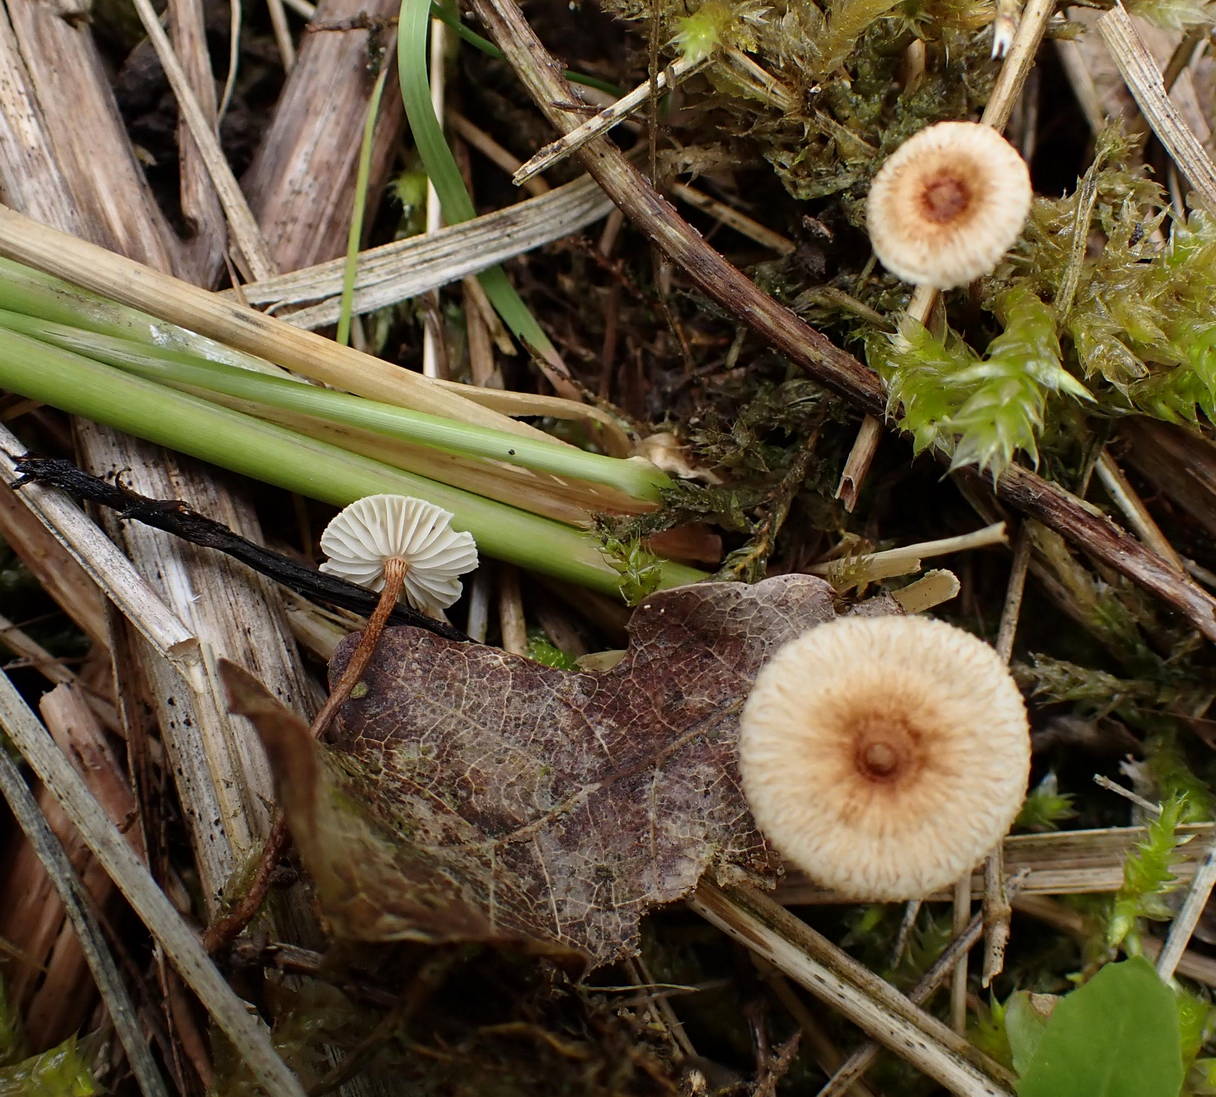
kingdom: Fungi
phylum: Basidiomycota
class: Agaricomycetes
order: Agaricales
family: Marasmiaceae
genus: Crinipellis
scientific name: Crinipellis scabella
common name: børstefod
